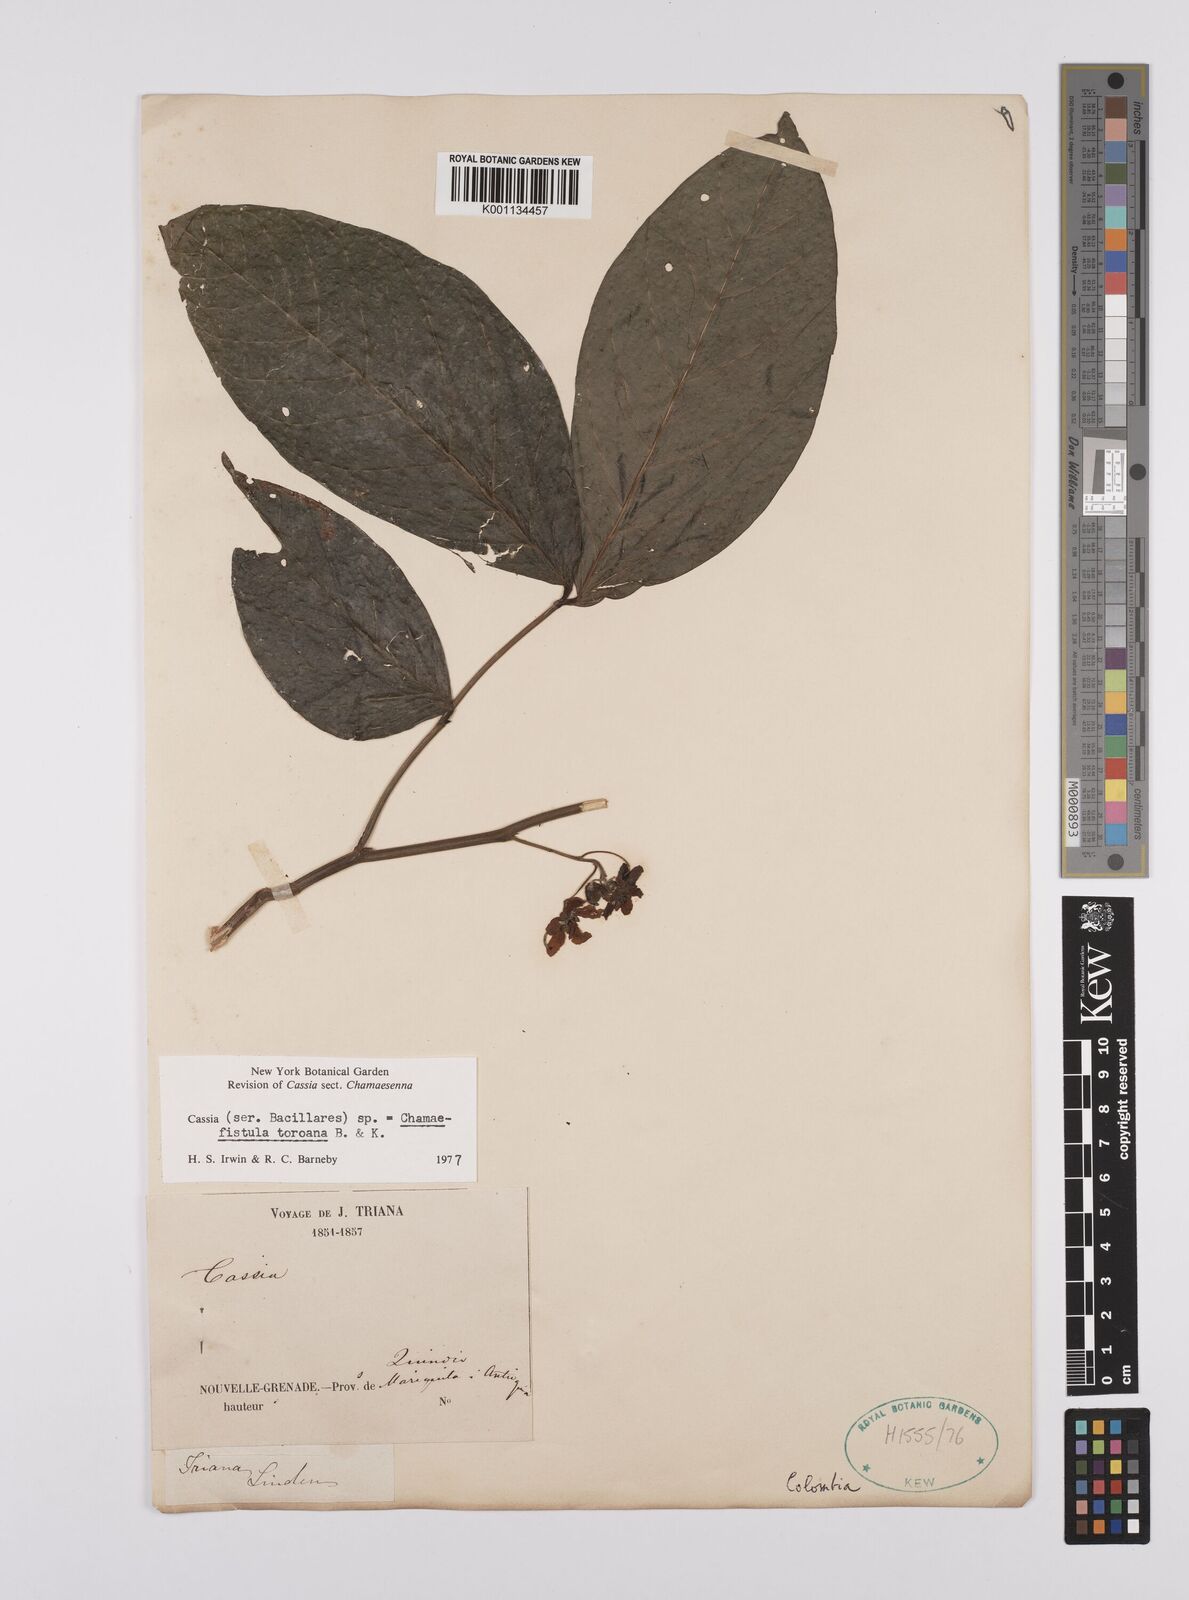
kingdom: Plantae
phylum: Tracheophyta
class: Magnoliopsida
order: Fabales
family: Fabaceae
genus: Senna
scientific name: Senna
